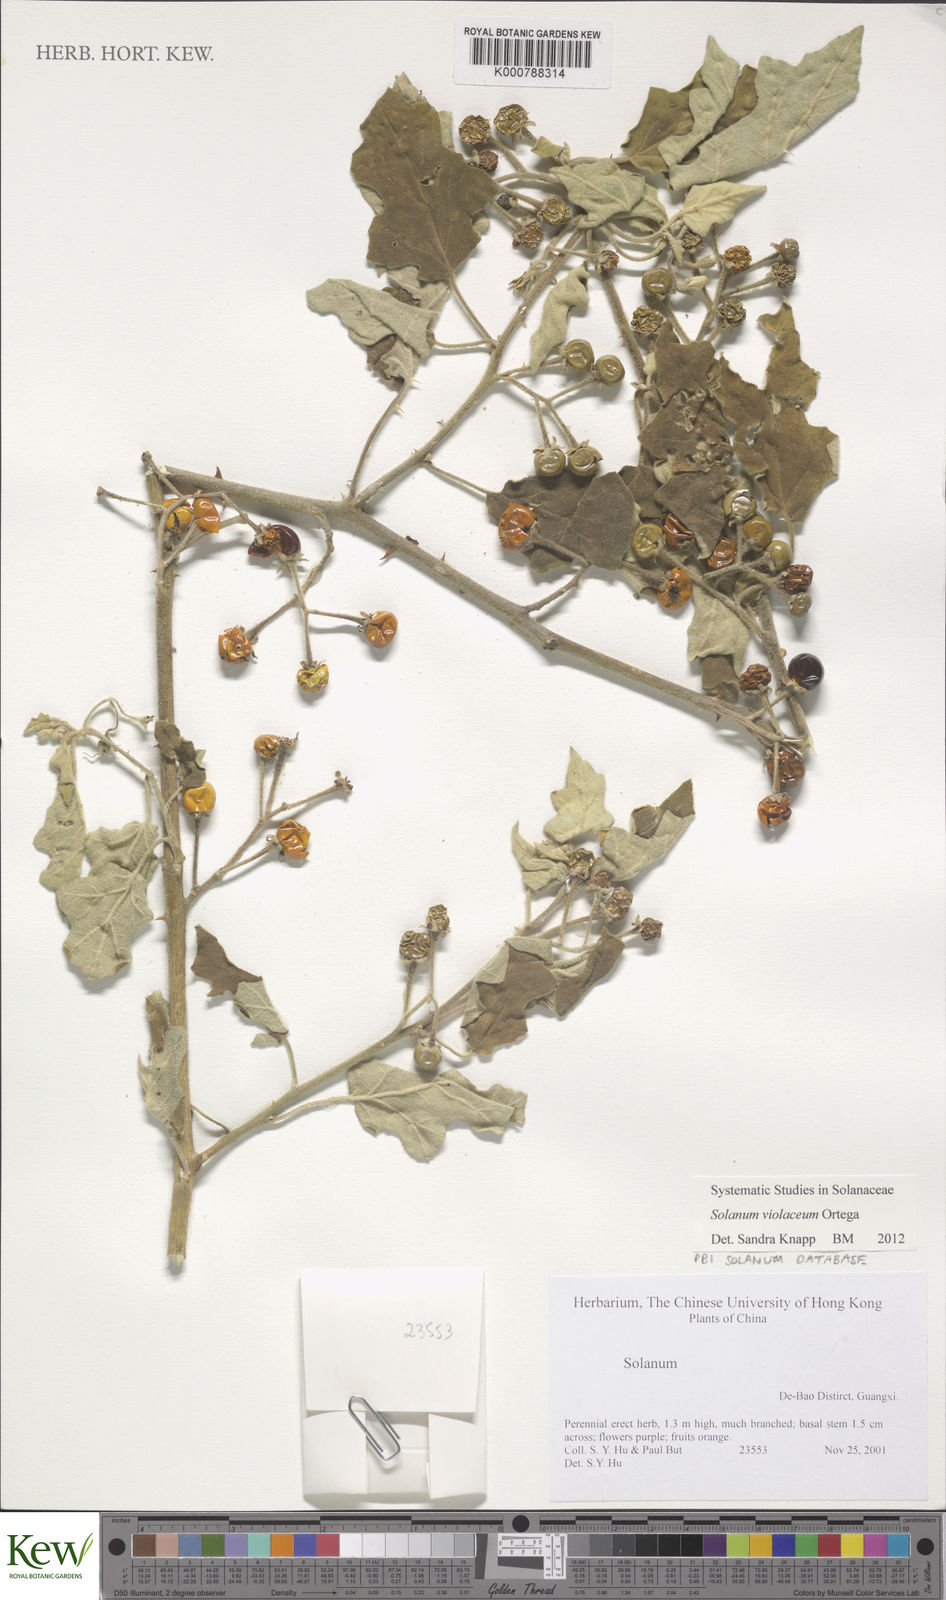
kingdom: Plantae
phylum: Tracheophyta
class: Magnoliopsida
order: Solanales
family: Solanaceae
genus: Solanum
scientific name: Solanum violaceum
